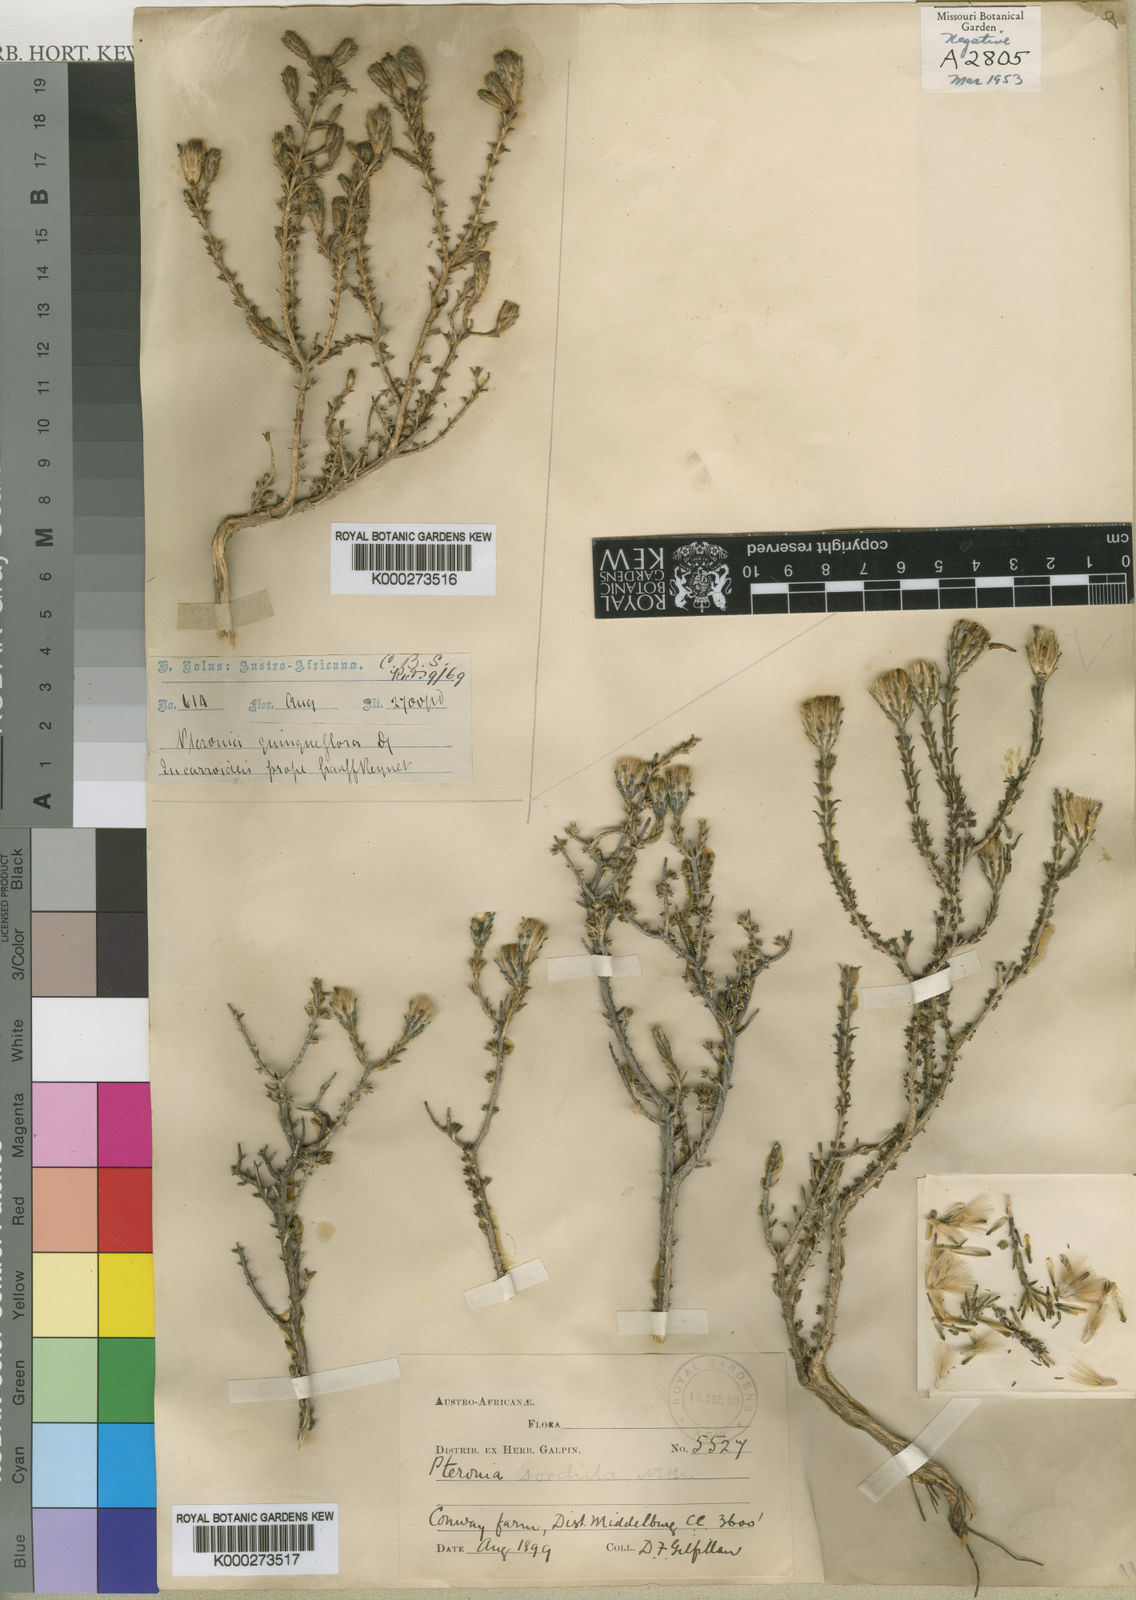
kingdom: Plantae
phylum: Tracheophyta
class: Magnoliopsida
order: Asterales
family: Asteraceae
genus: Pteronia
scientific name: Pteronia sordida
